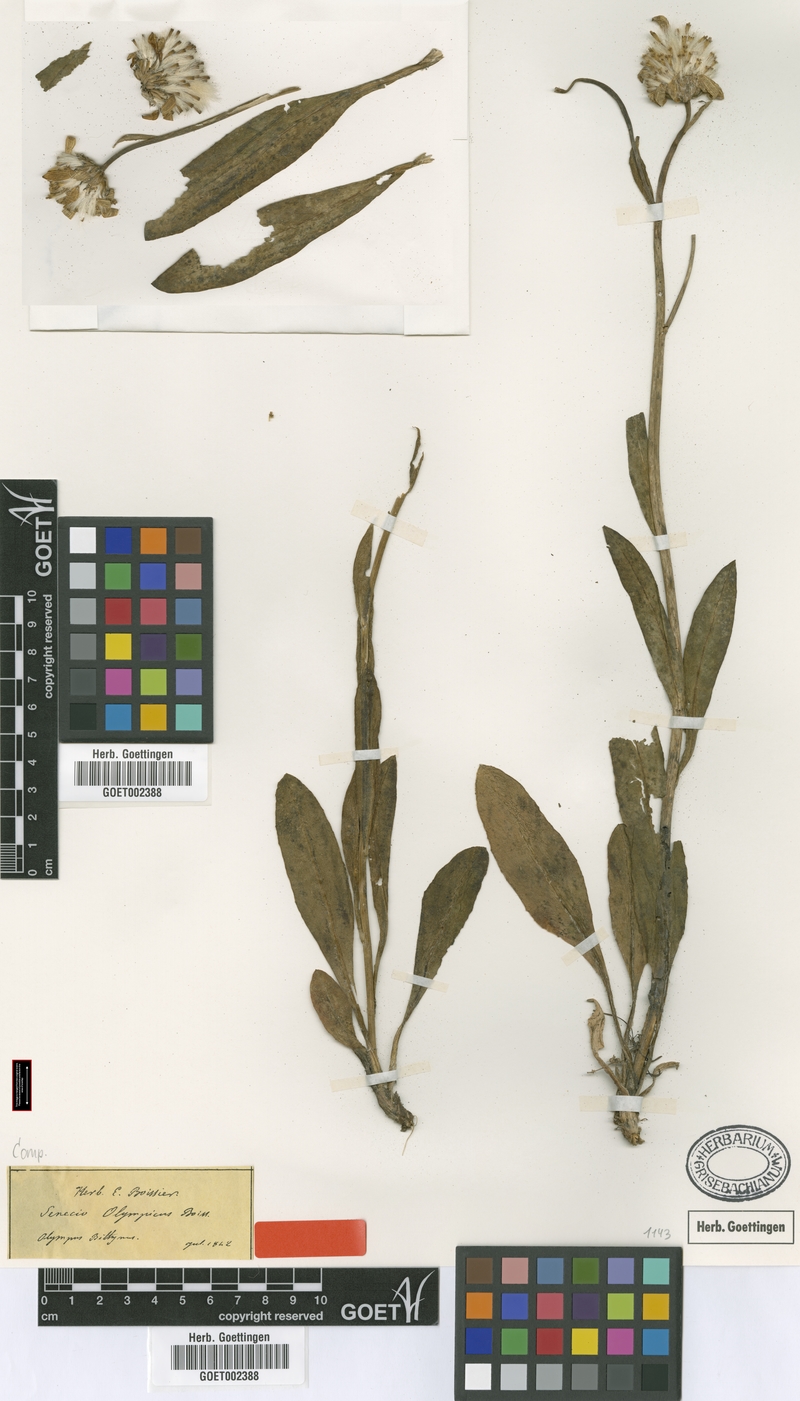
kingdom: Plantae
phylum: Tracheophyta
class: Magnoliopsida
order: Asterales
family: Asteraceae
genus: Senecio
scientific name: Senecio olympicus
